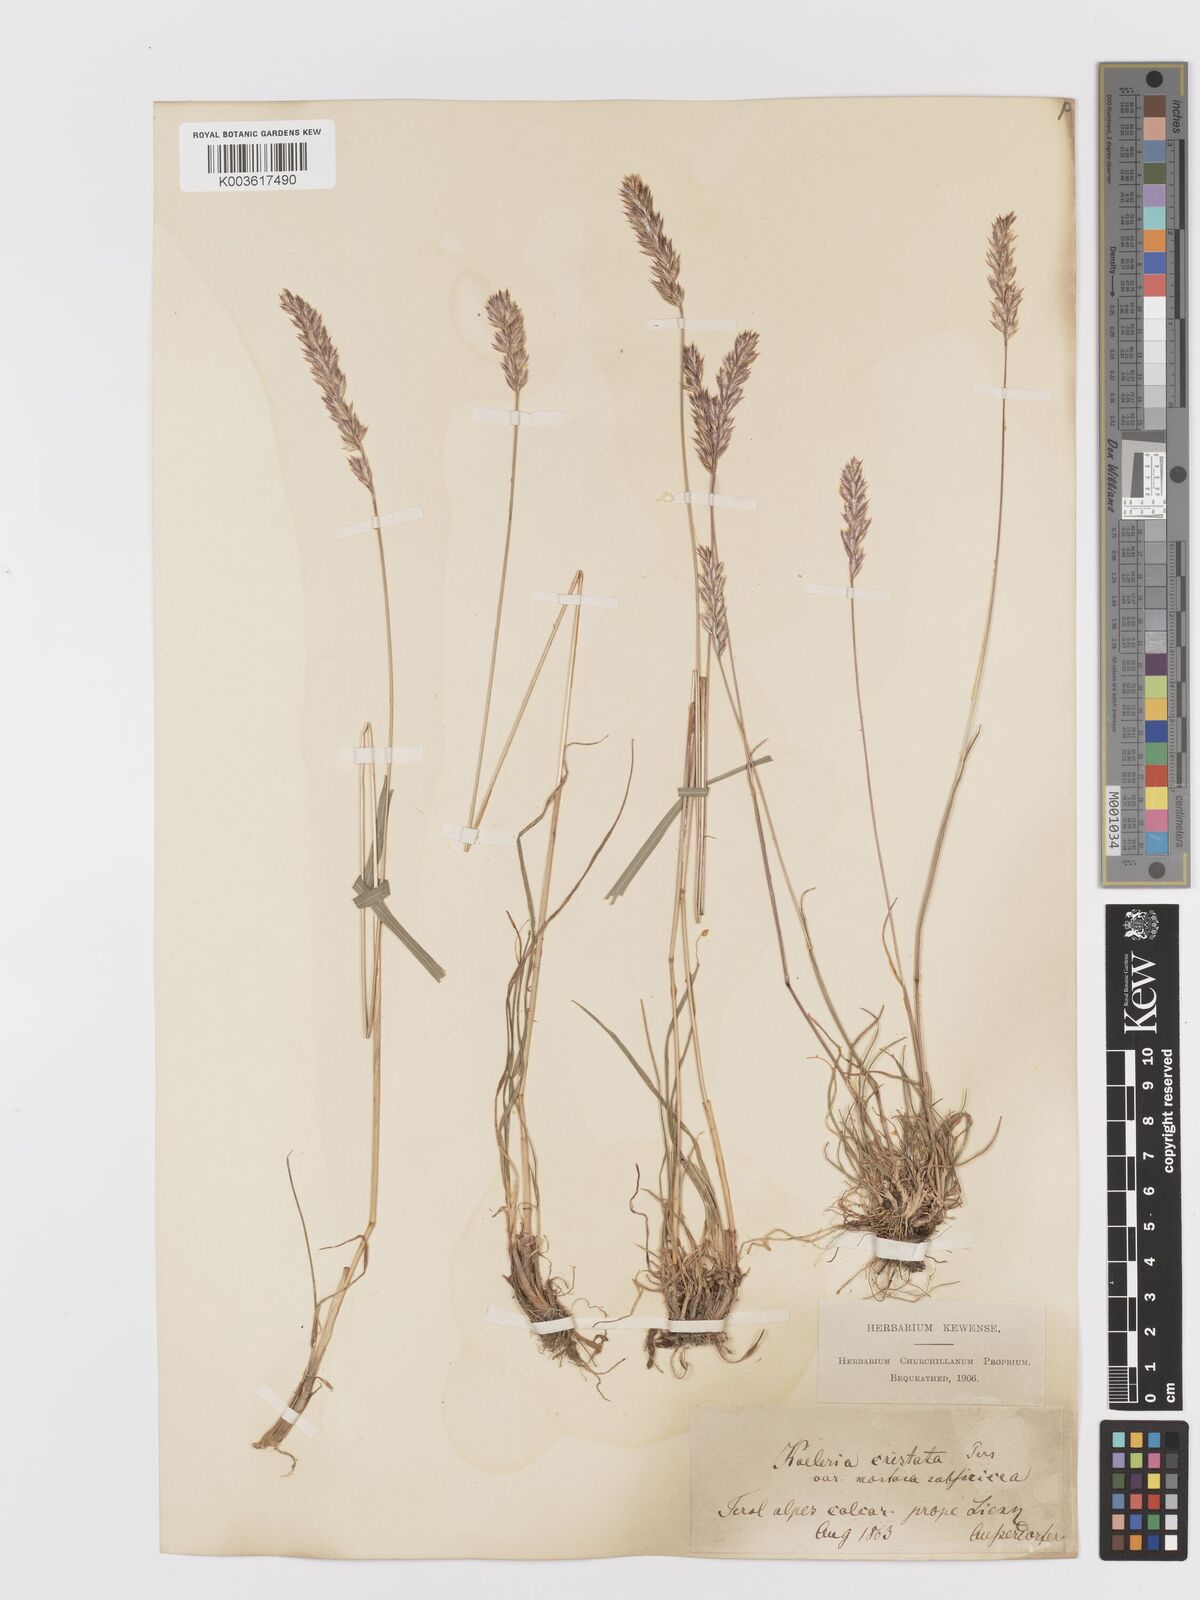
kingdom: Plantae
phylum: Tracheophyta
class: Liliopsida
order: Poales
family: Poaceae
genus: Koeleria
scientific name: Koeleria
